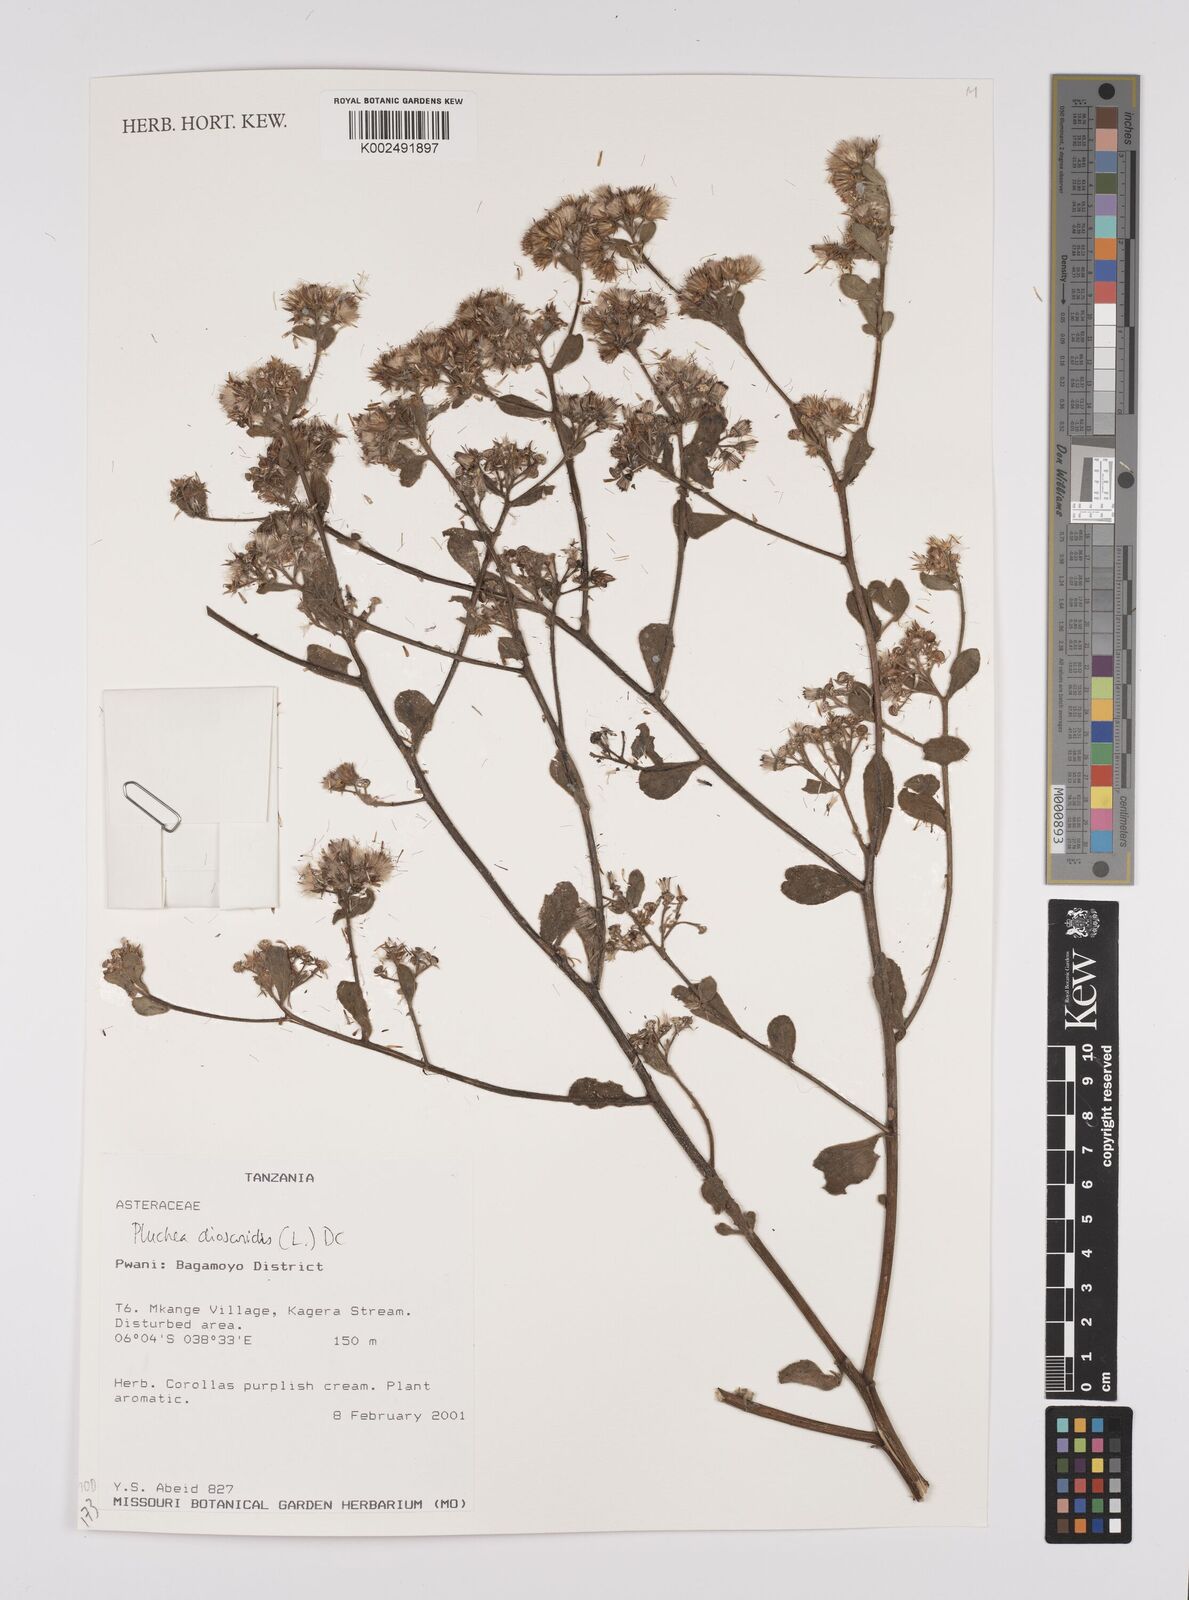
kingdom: Plantae
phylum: Tracheophyta
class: Magnoliopsida
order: Asterales
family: Asteraceae
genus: Pluchea
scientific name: Pluchea dioscoridis
